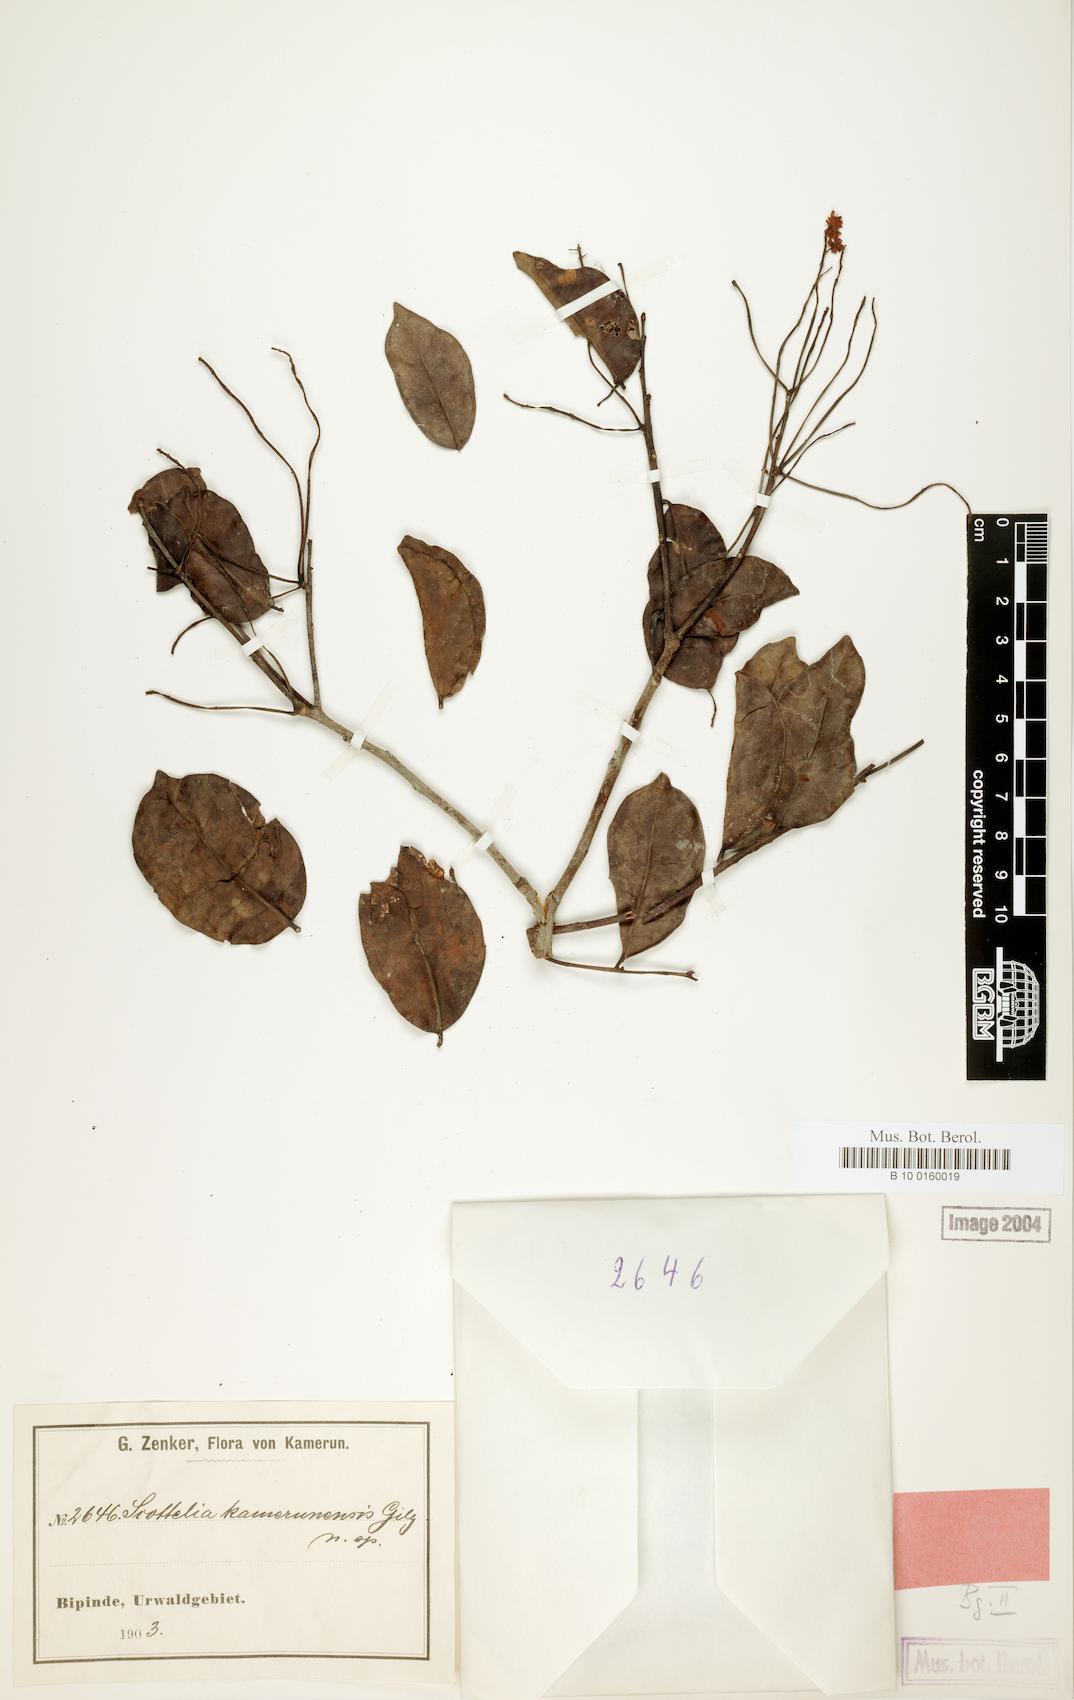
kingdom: Plantae
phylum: Tracheophyta
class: Magnoliopsida
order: Malpighiales
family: Achariaceae
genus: Scottellia
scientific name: Scottellia klaineana
